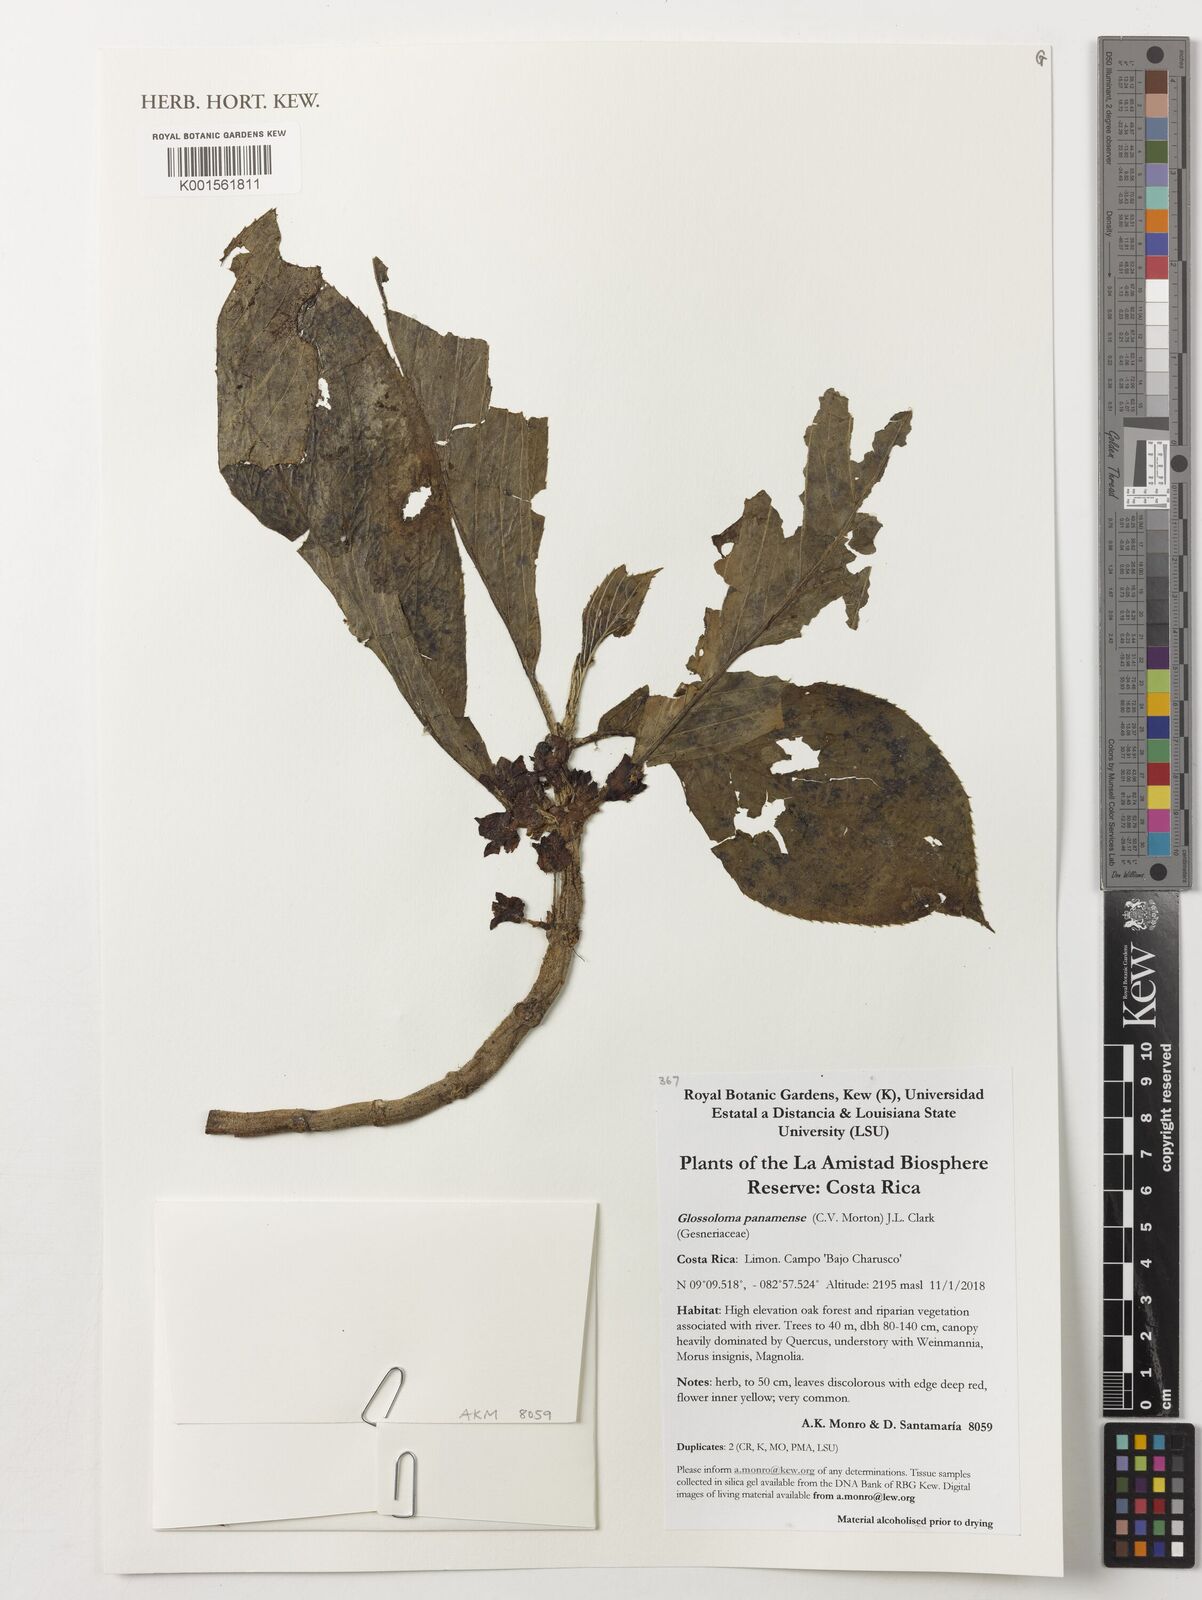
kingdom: Plantae
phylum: Tracheophyta
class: Magnoliopsida
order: Lamiales
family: Gesneriaceae
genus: Glossoloma
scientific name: Glossoloma panamense
